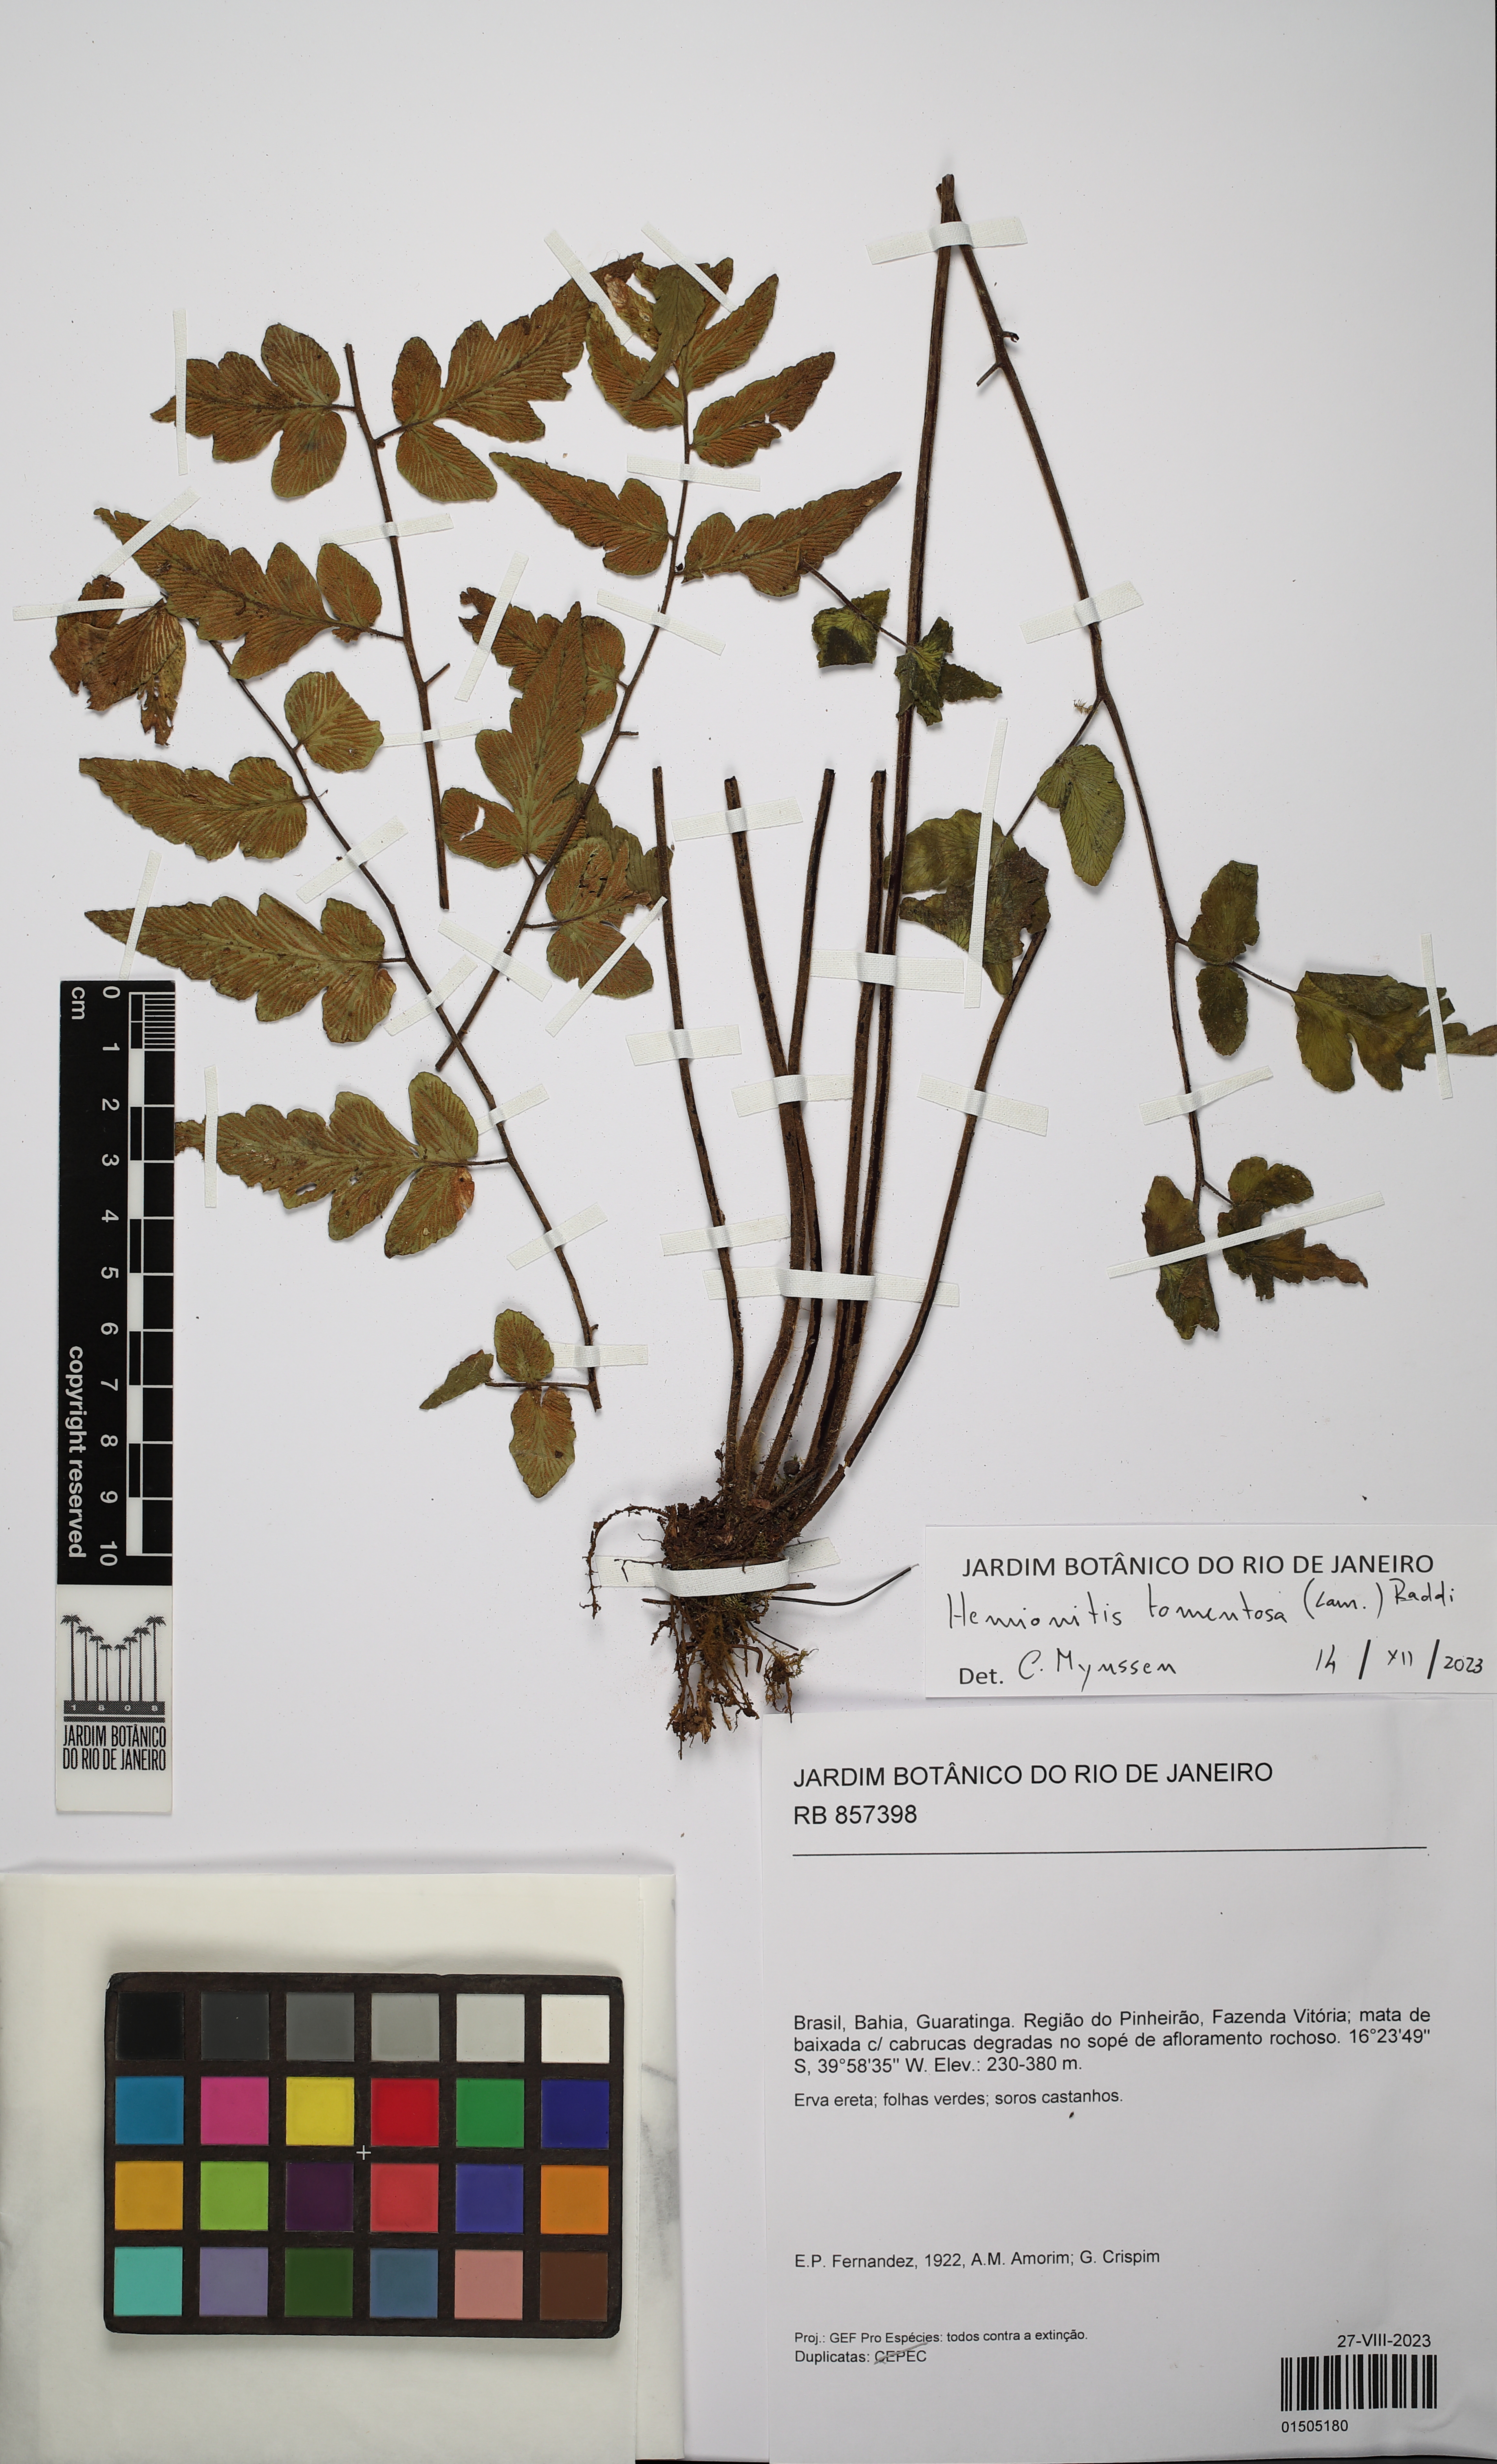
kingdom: Plantae
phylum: Tracheophyta
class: Polypodiopsida
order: Polypodiales
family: Pteridaceae
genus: Hemionitis
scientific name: Hemionitis tomentosa
